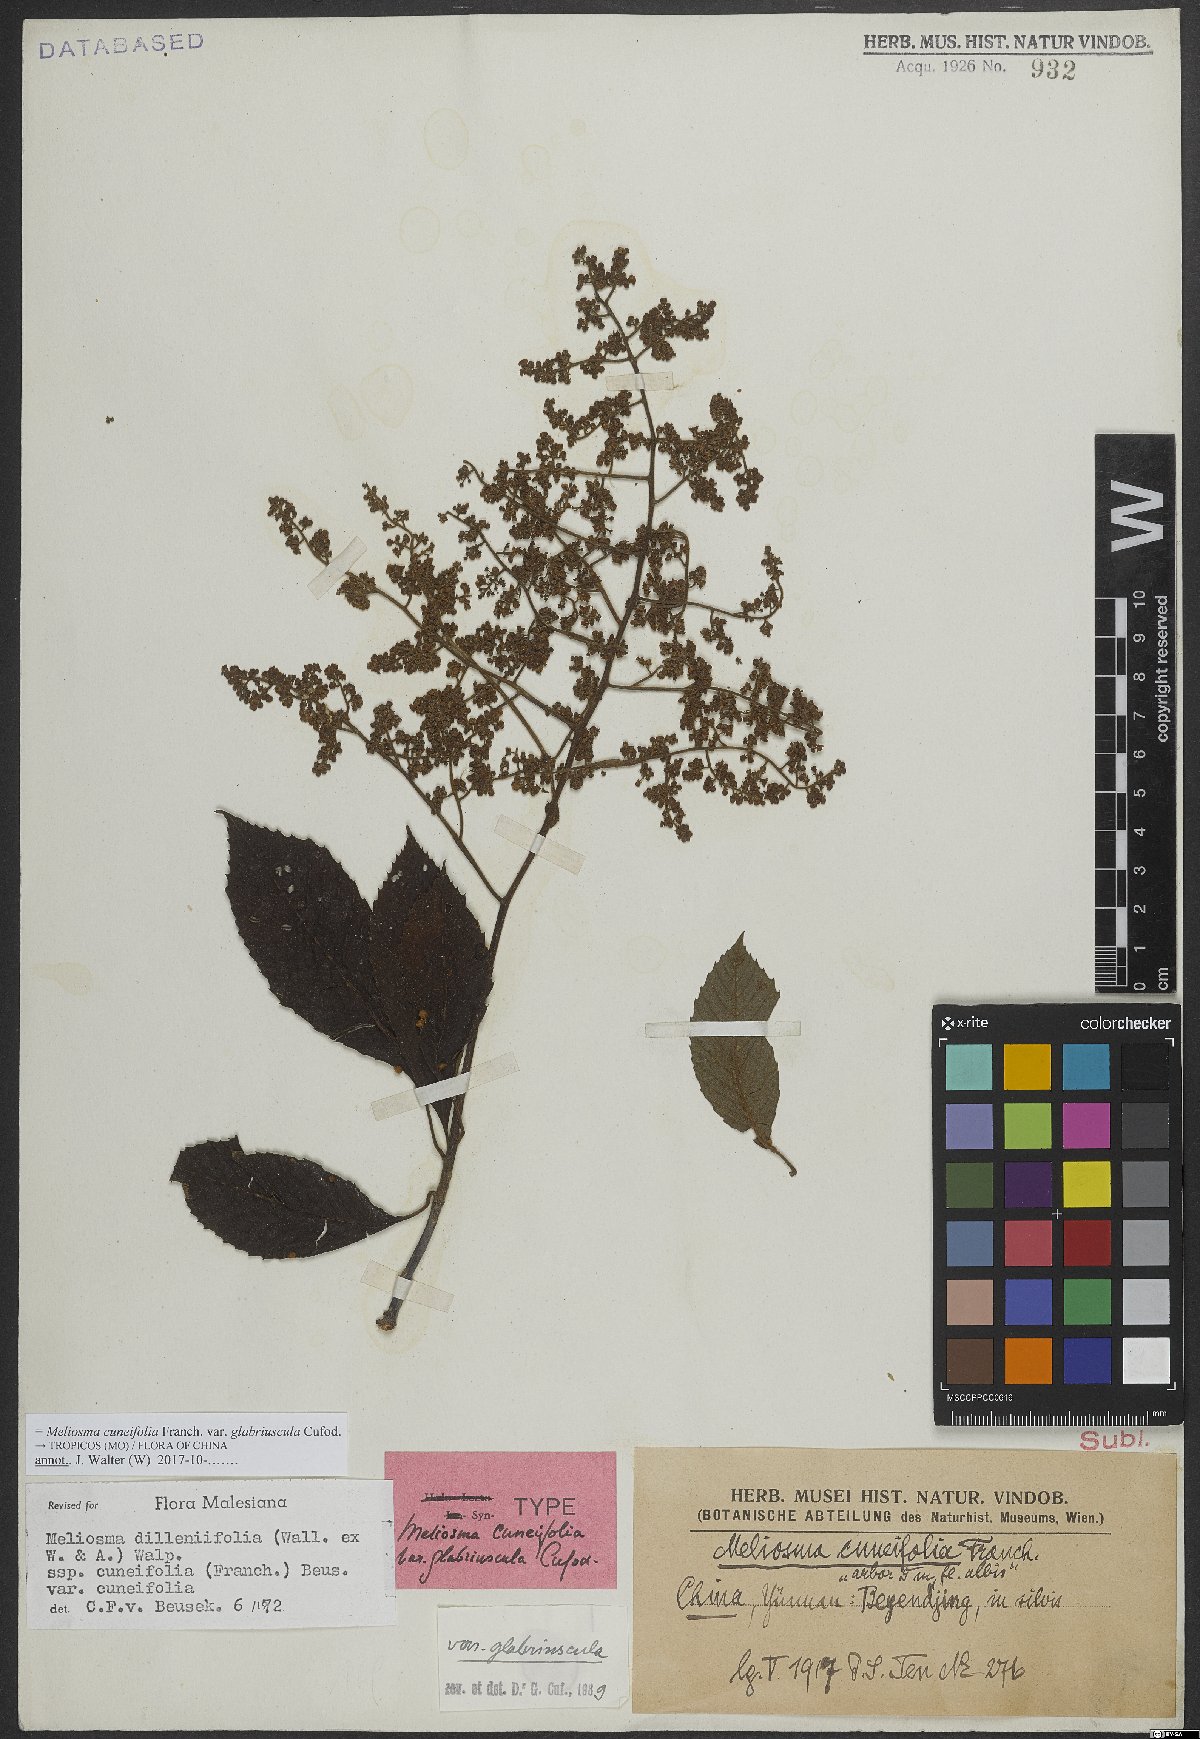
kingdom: Plantae
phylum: Tracheophyta
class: Magnoliopsida
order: Proteales
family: Sabiaceae
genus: Meliosma
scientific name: Meliosma cuneifolia
